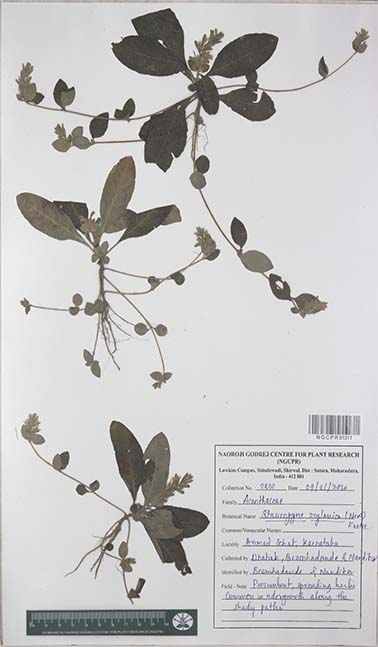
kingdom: Plantae
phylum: Tracheophyta
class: Magnoliopsida
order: Lamiales
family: Acanthaceae
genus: Staurogyne
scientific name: Staurogyne zeylanica
